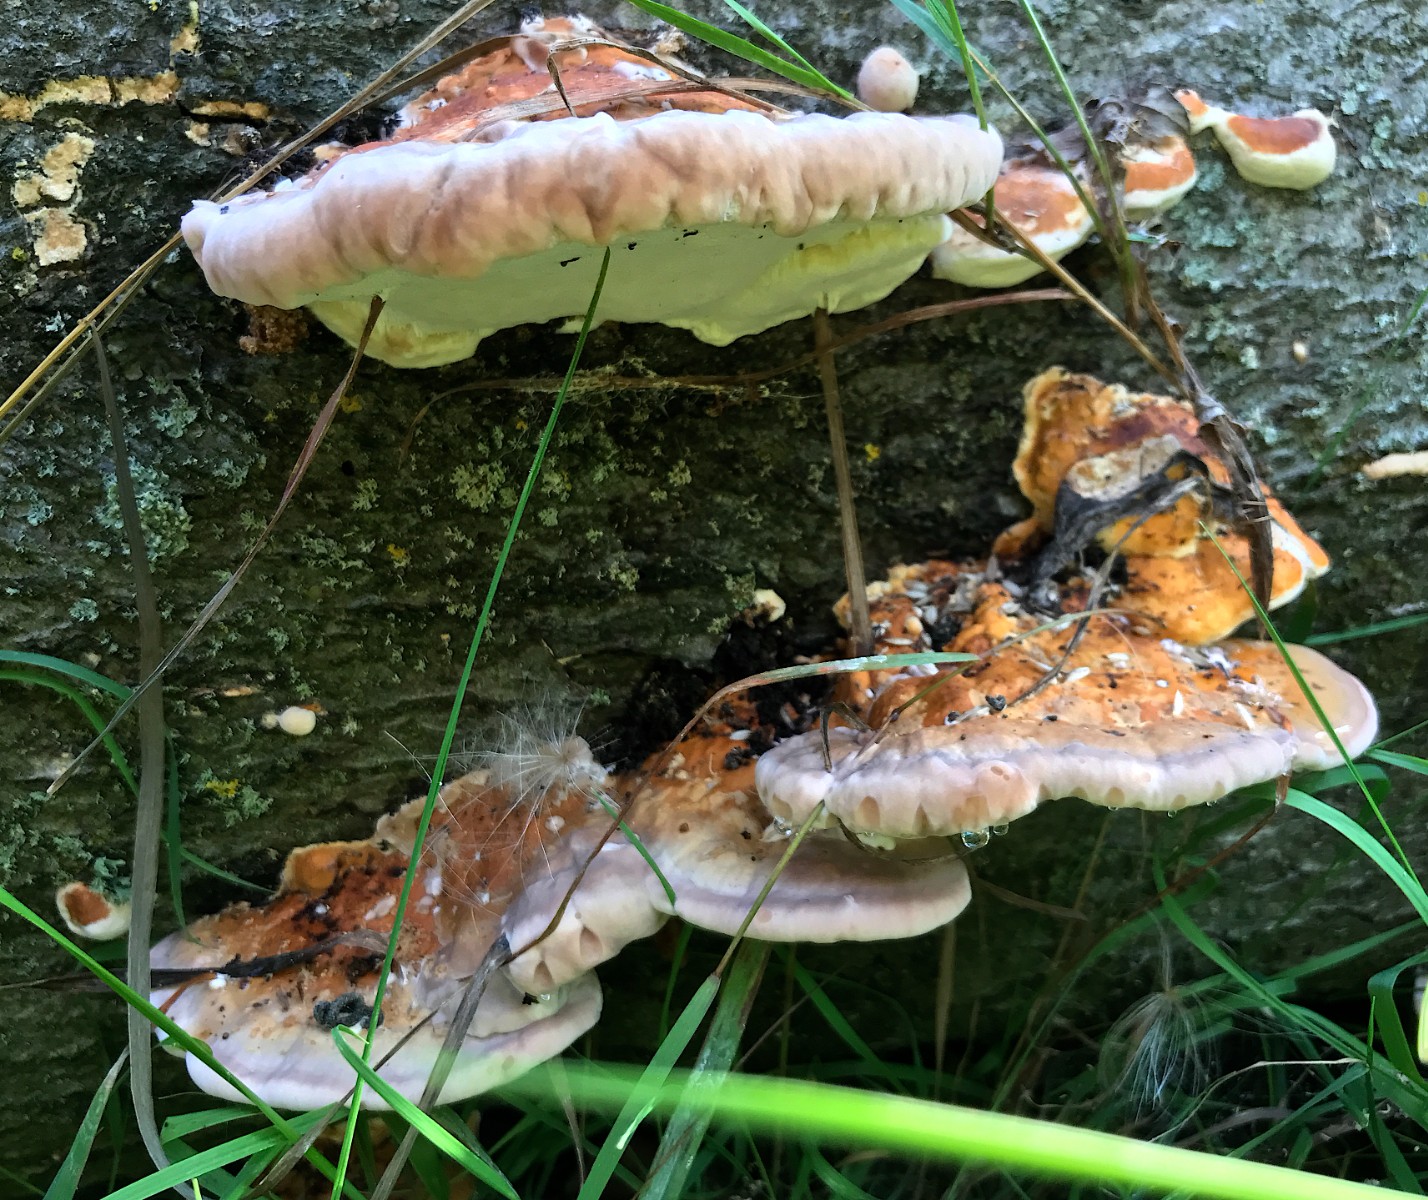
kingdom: Fungi
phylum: Basidiomycota
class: Agaricomycetes
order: Polyporales
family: Fomitopsidaceae
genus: Fomitopsis
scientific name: Fomitopsis pinicola
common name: randbæltet hovporesvamp
